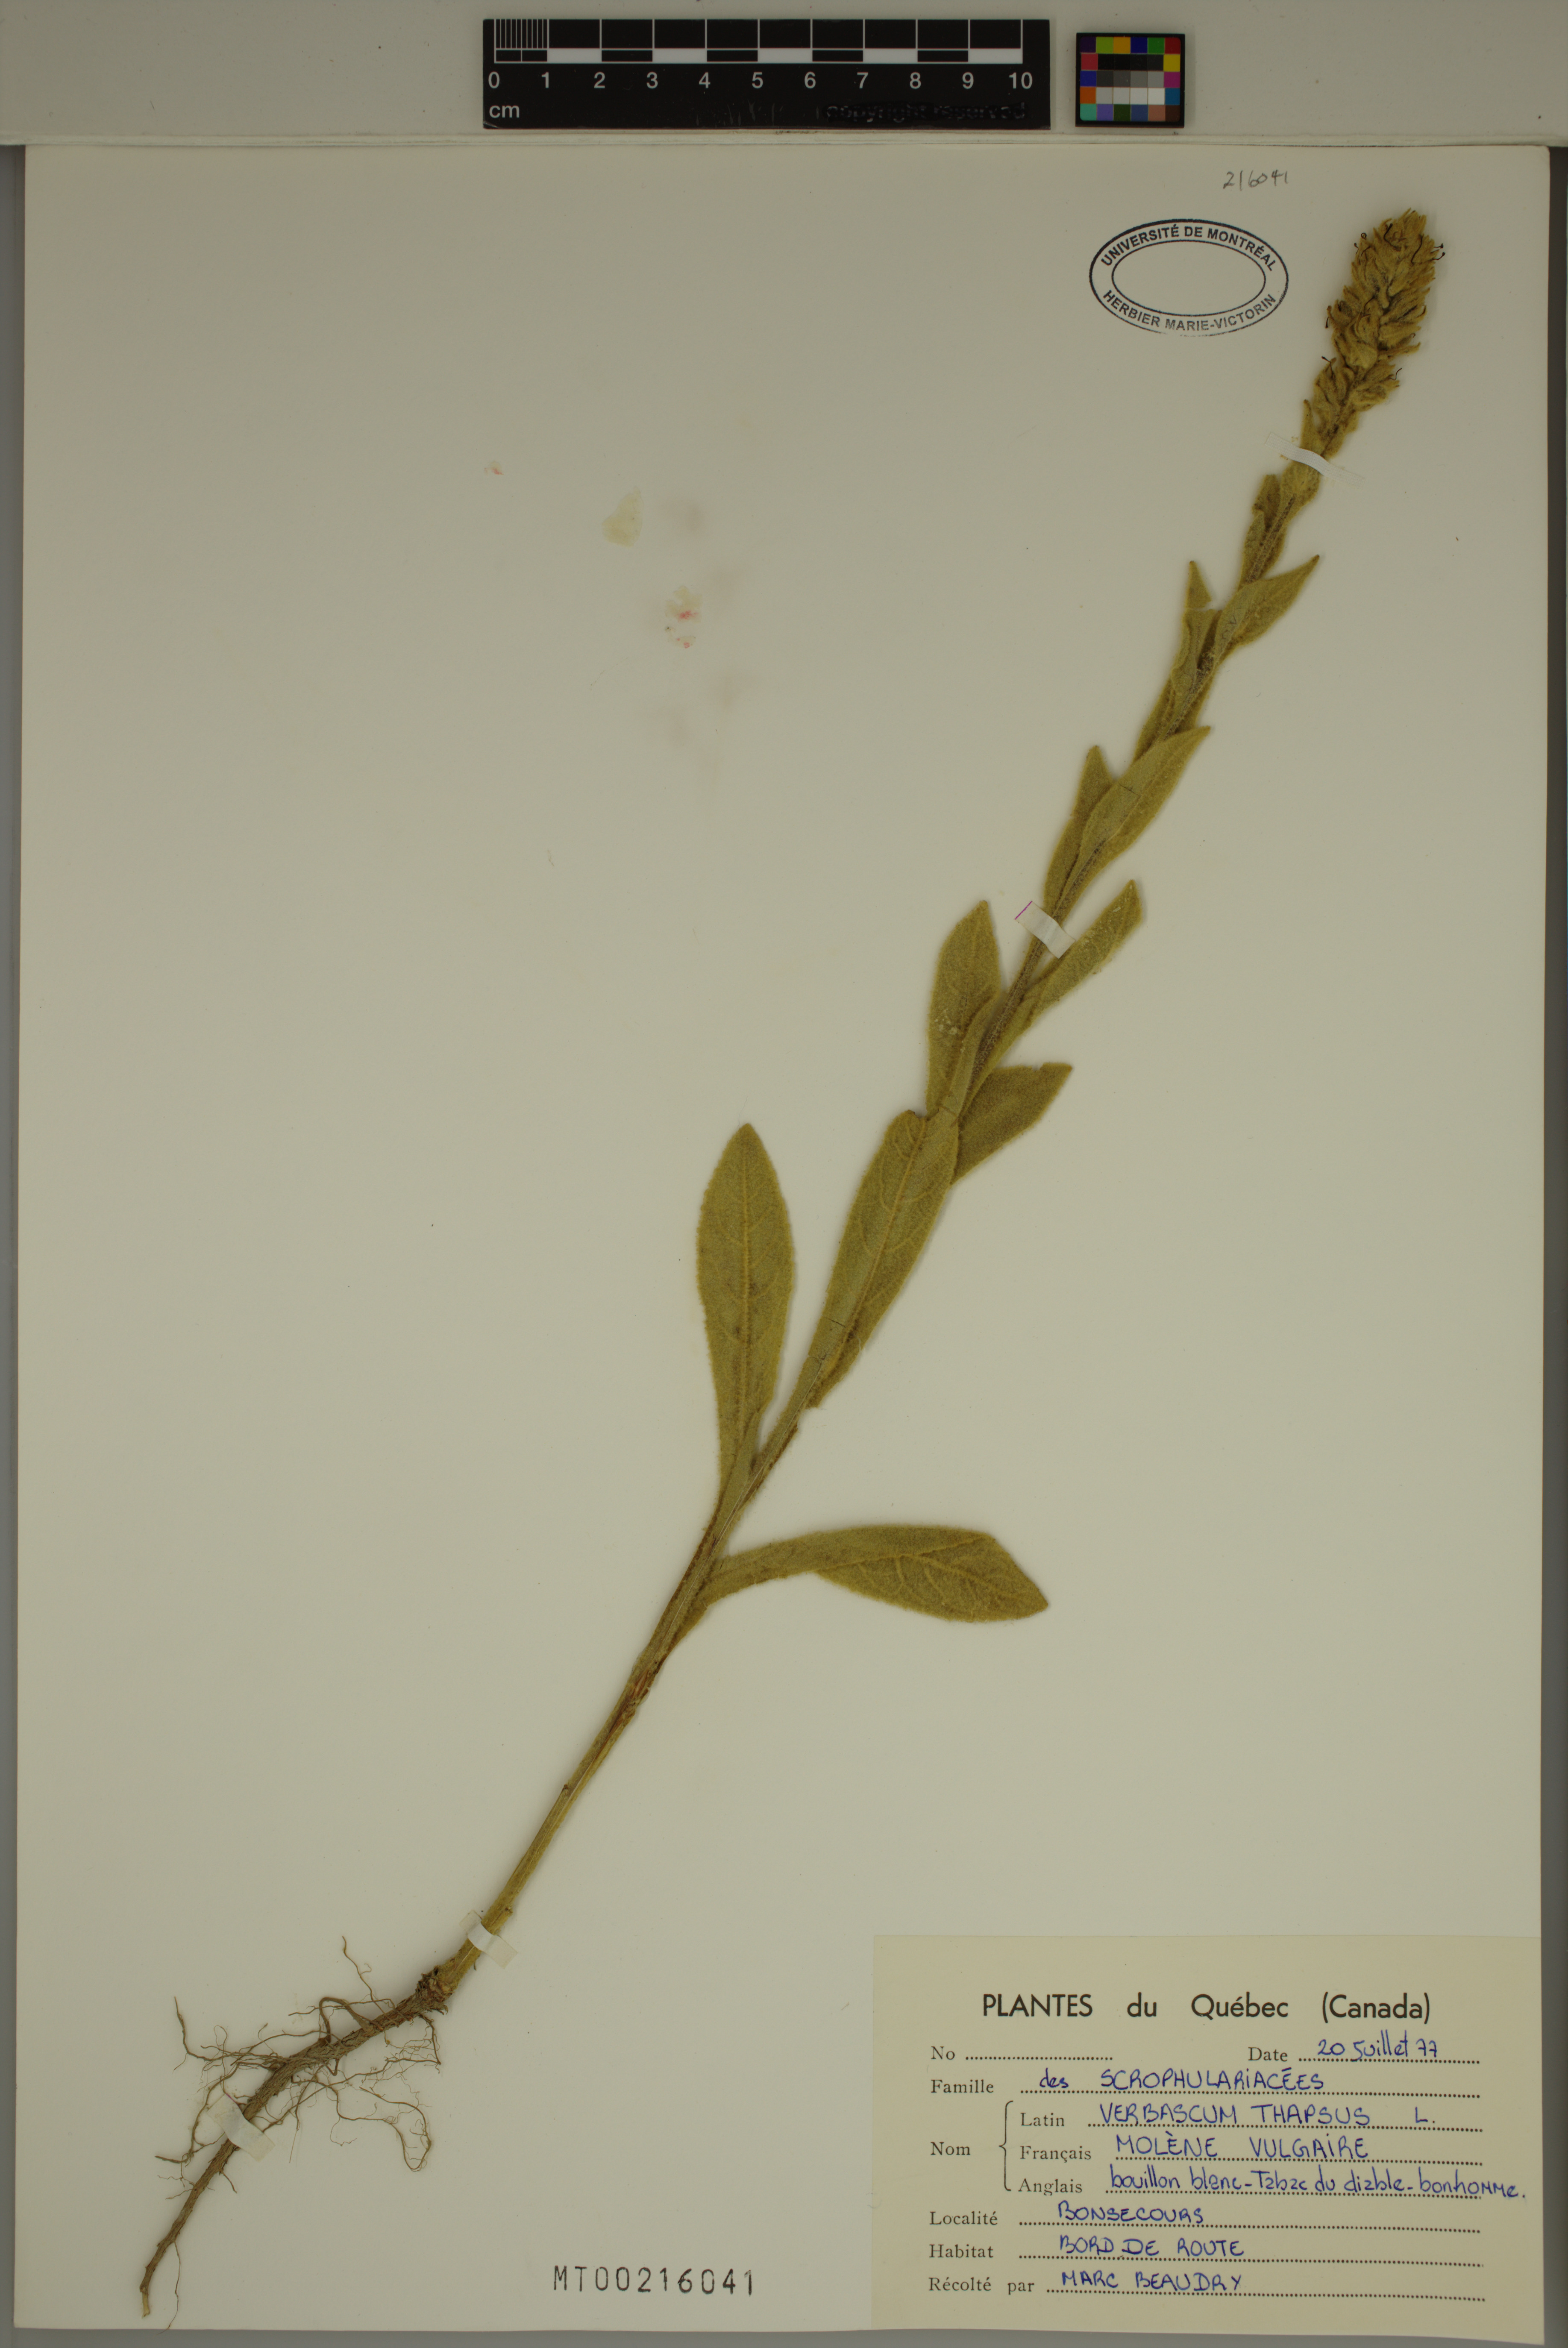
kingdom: Plantae
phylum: Tracheophyta
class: Magnoliopsida
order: Lamiales
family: Scrophulariaceae
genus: Verbascum
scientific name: Verbascum thapsus
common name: Common mullein
